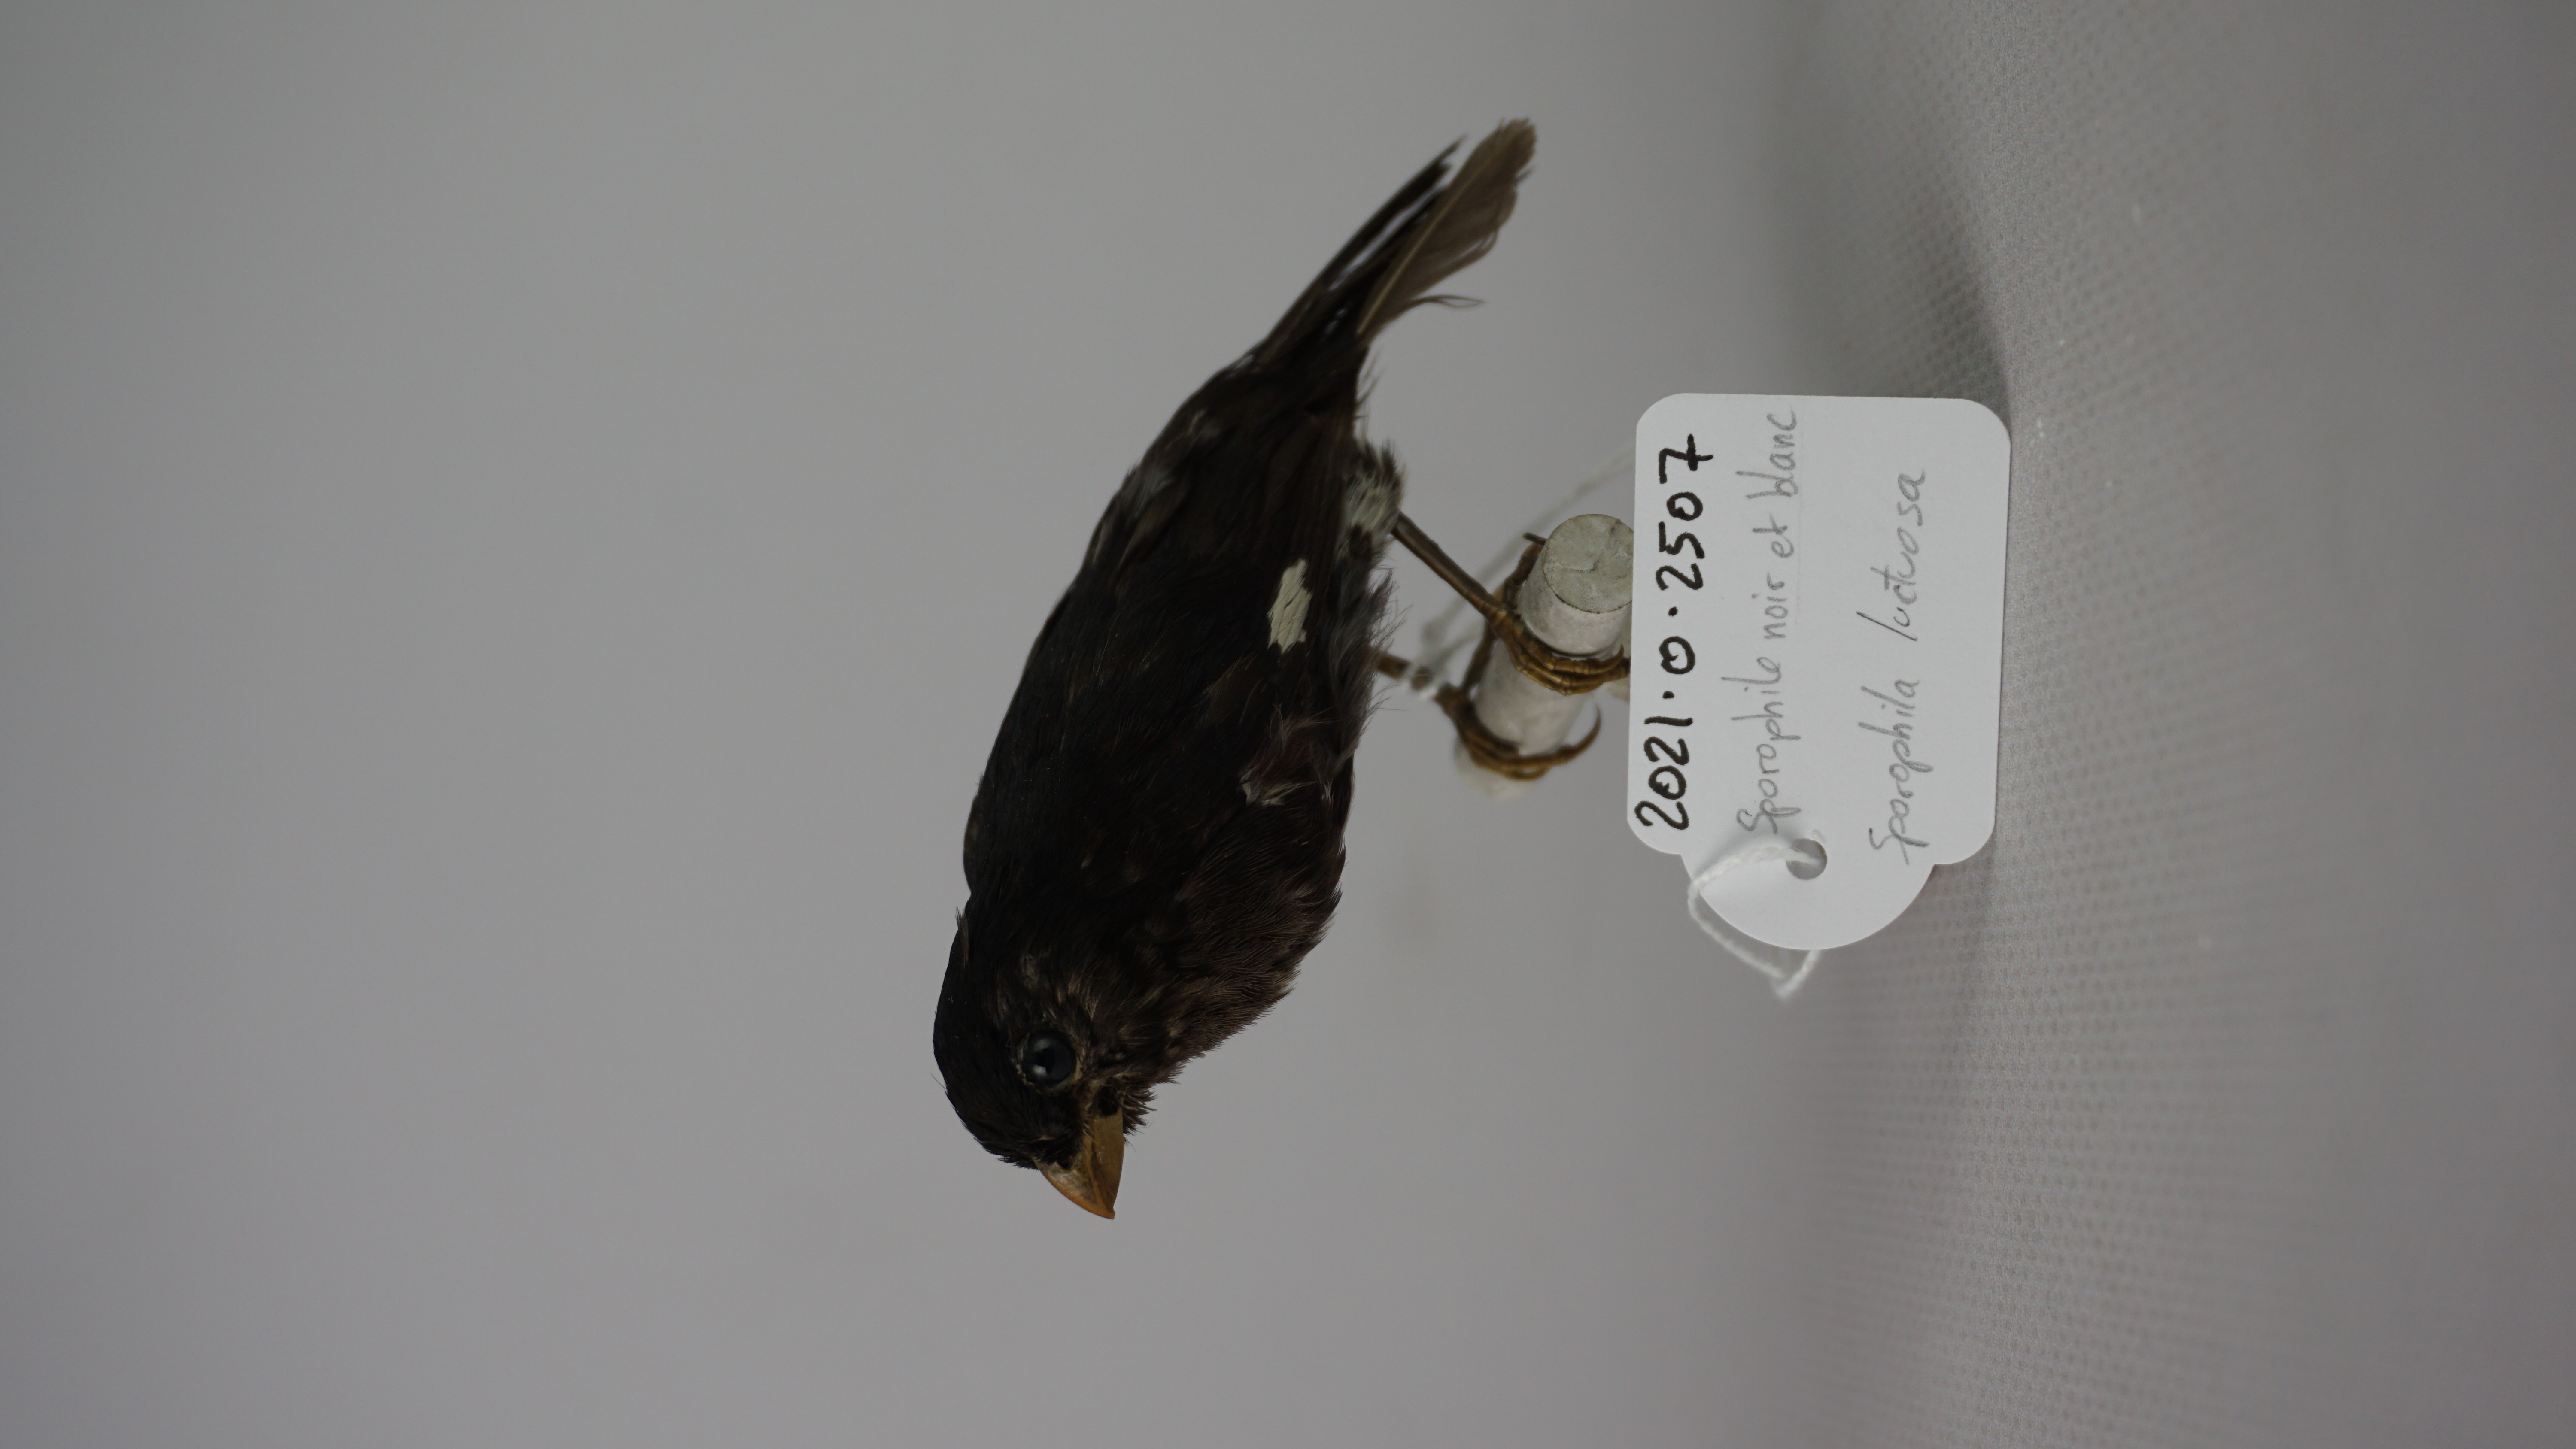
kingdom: Animalia
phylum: Chordata
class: Aves
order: Passeriformes
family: Thraupidae
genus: Sporophila
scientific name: Sporophila luctuosa
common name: Black-and-white seedeater
